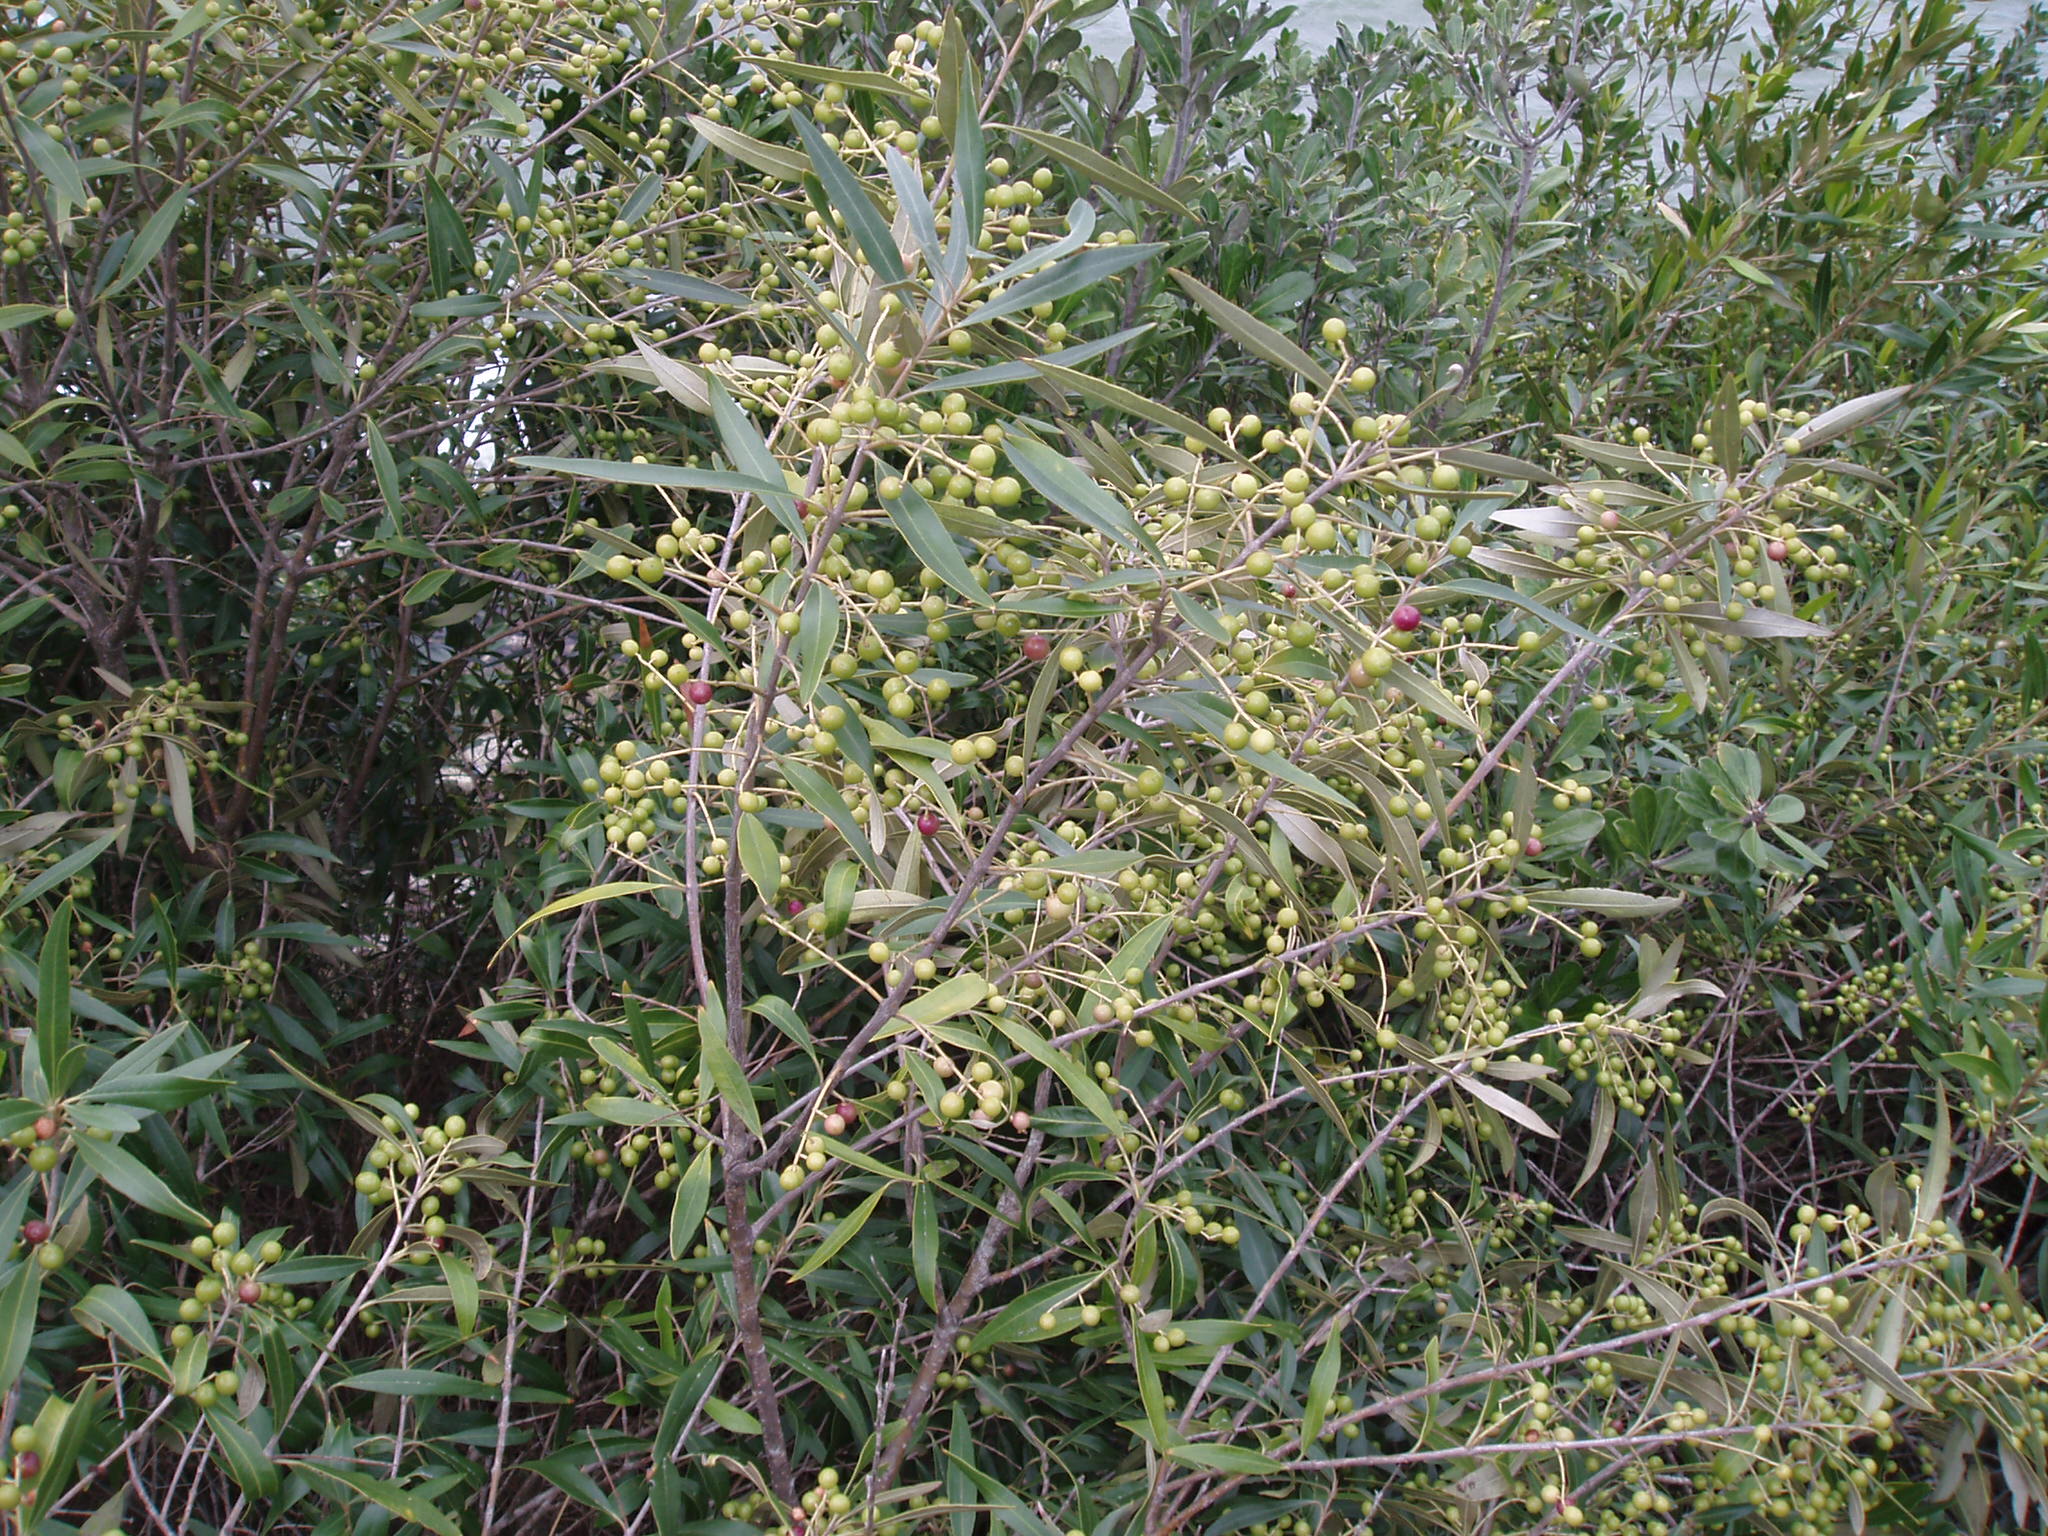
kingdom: Plantae
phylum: Tracheophyta
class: Magnoliopsida
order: Lamiales
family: Oleaceae
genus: Olea
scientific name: Olea europaea
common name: Olive
